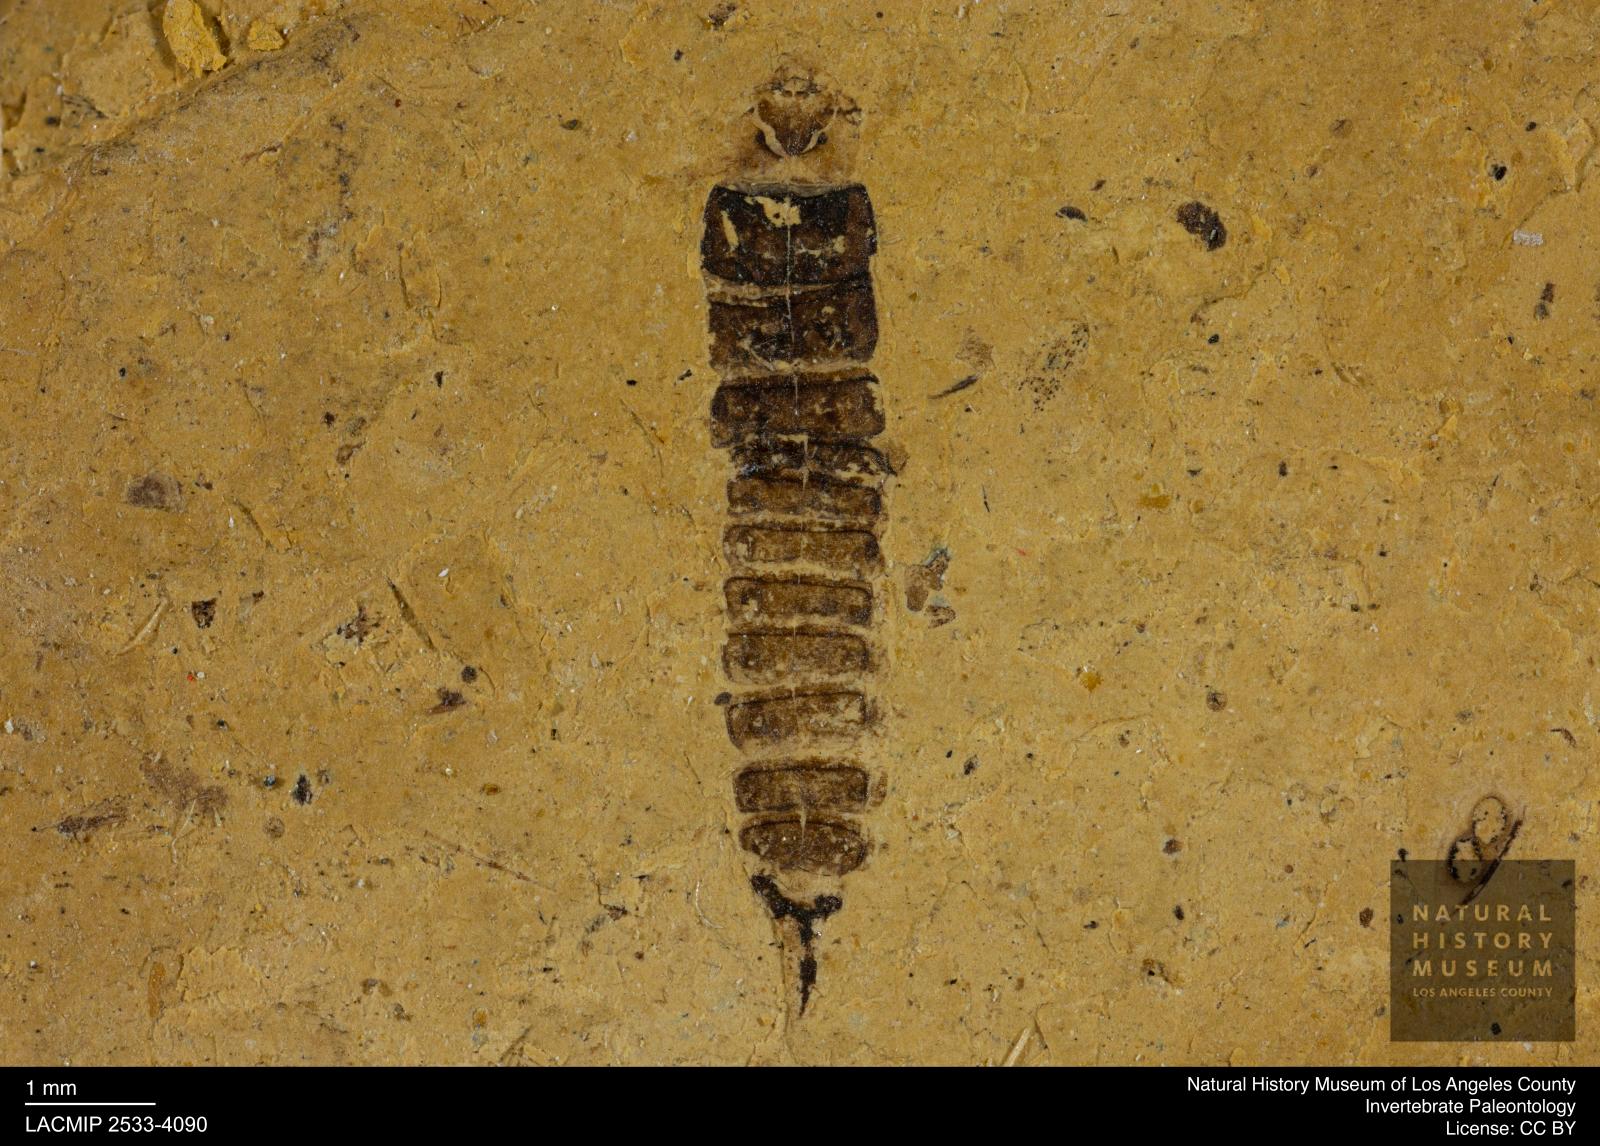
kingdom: Animalia
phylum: Arthropoda
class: Insecta
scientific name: Insecta
